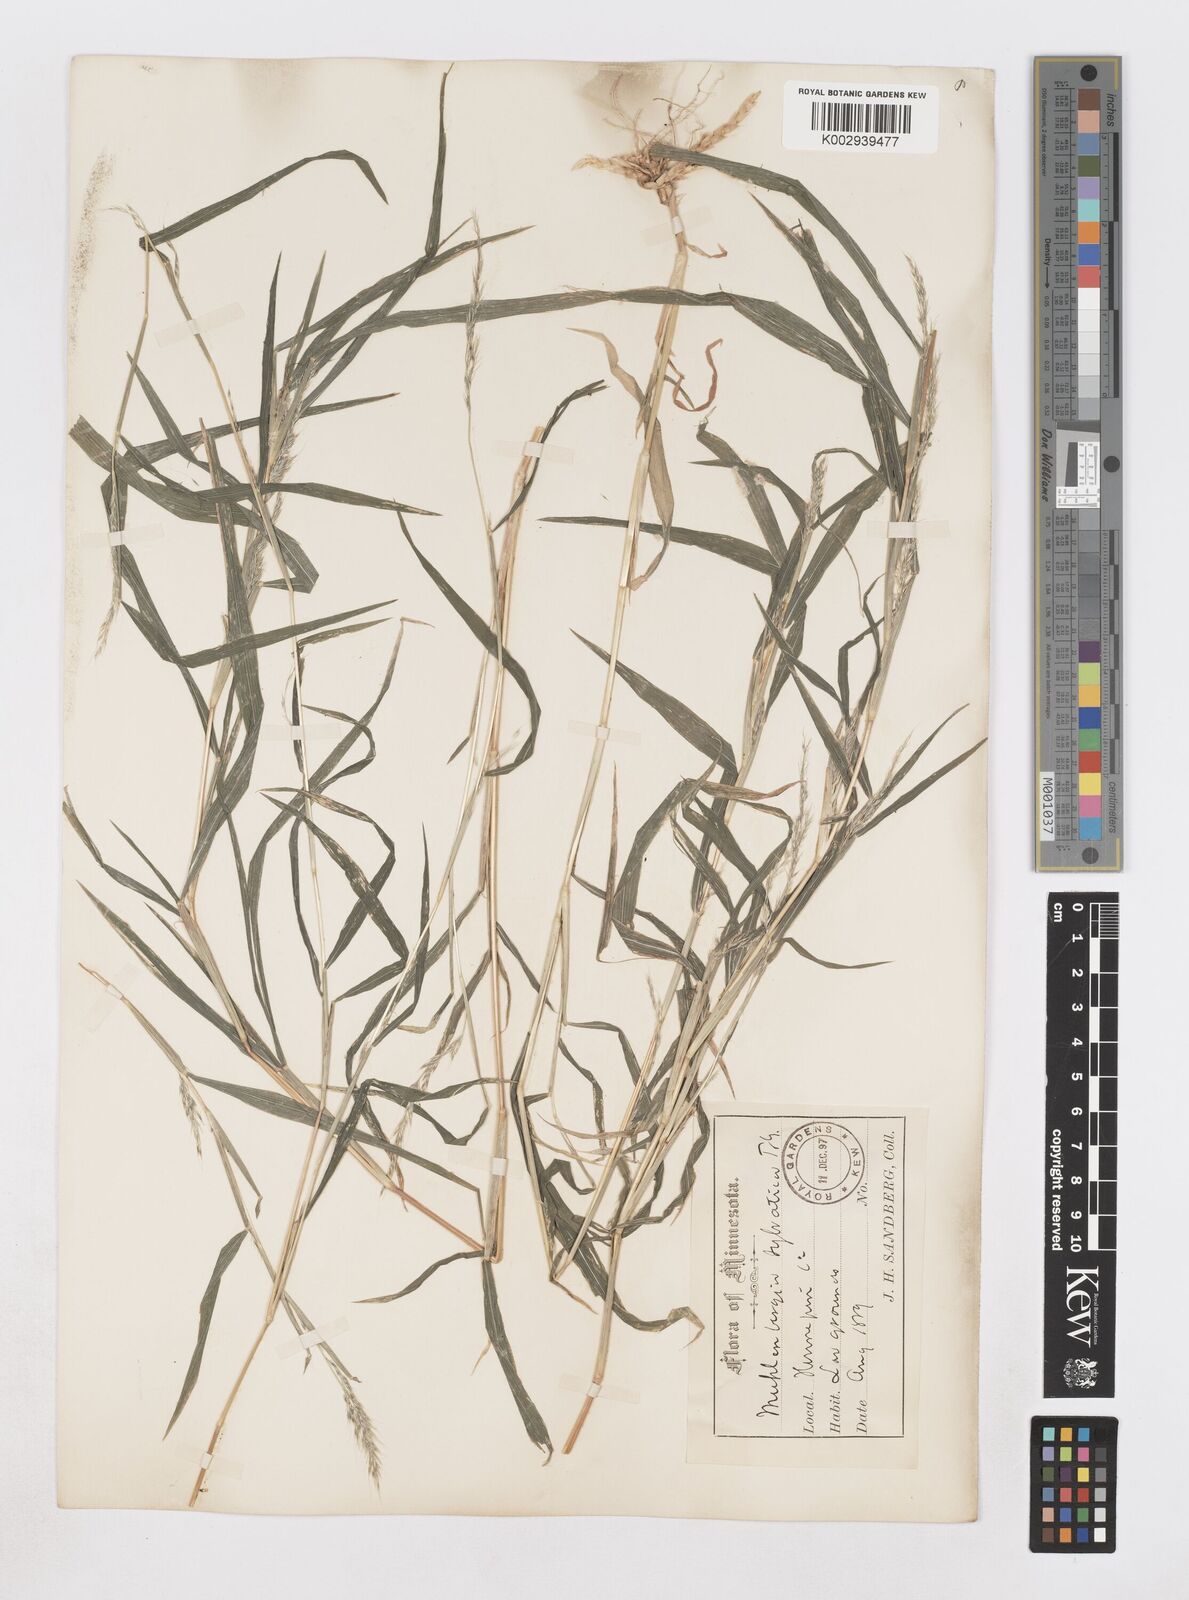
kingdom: Plantae
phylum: Tracheophyta
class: Liliopsida
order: Poales
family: Poaceae
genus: Muhlenbergia
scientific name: Muhlenbergia sylvatica
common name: Woodland muhly
